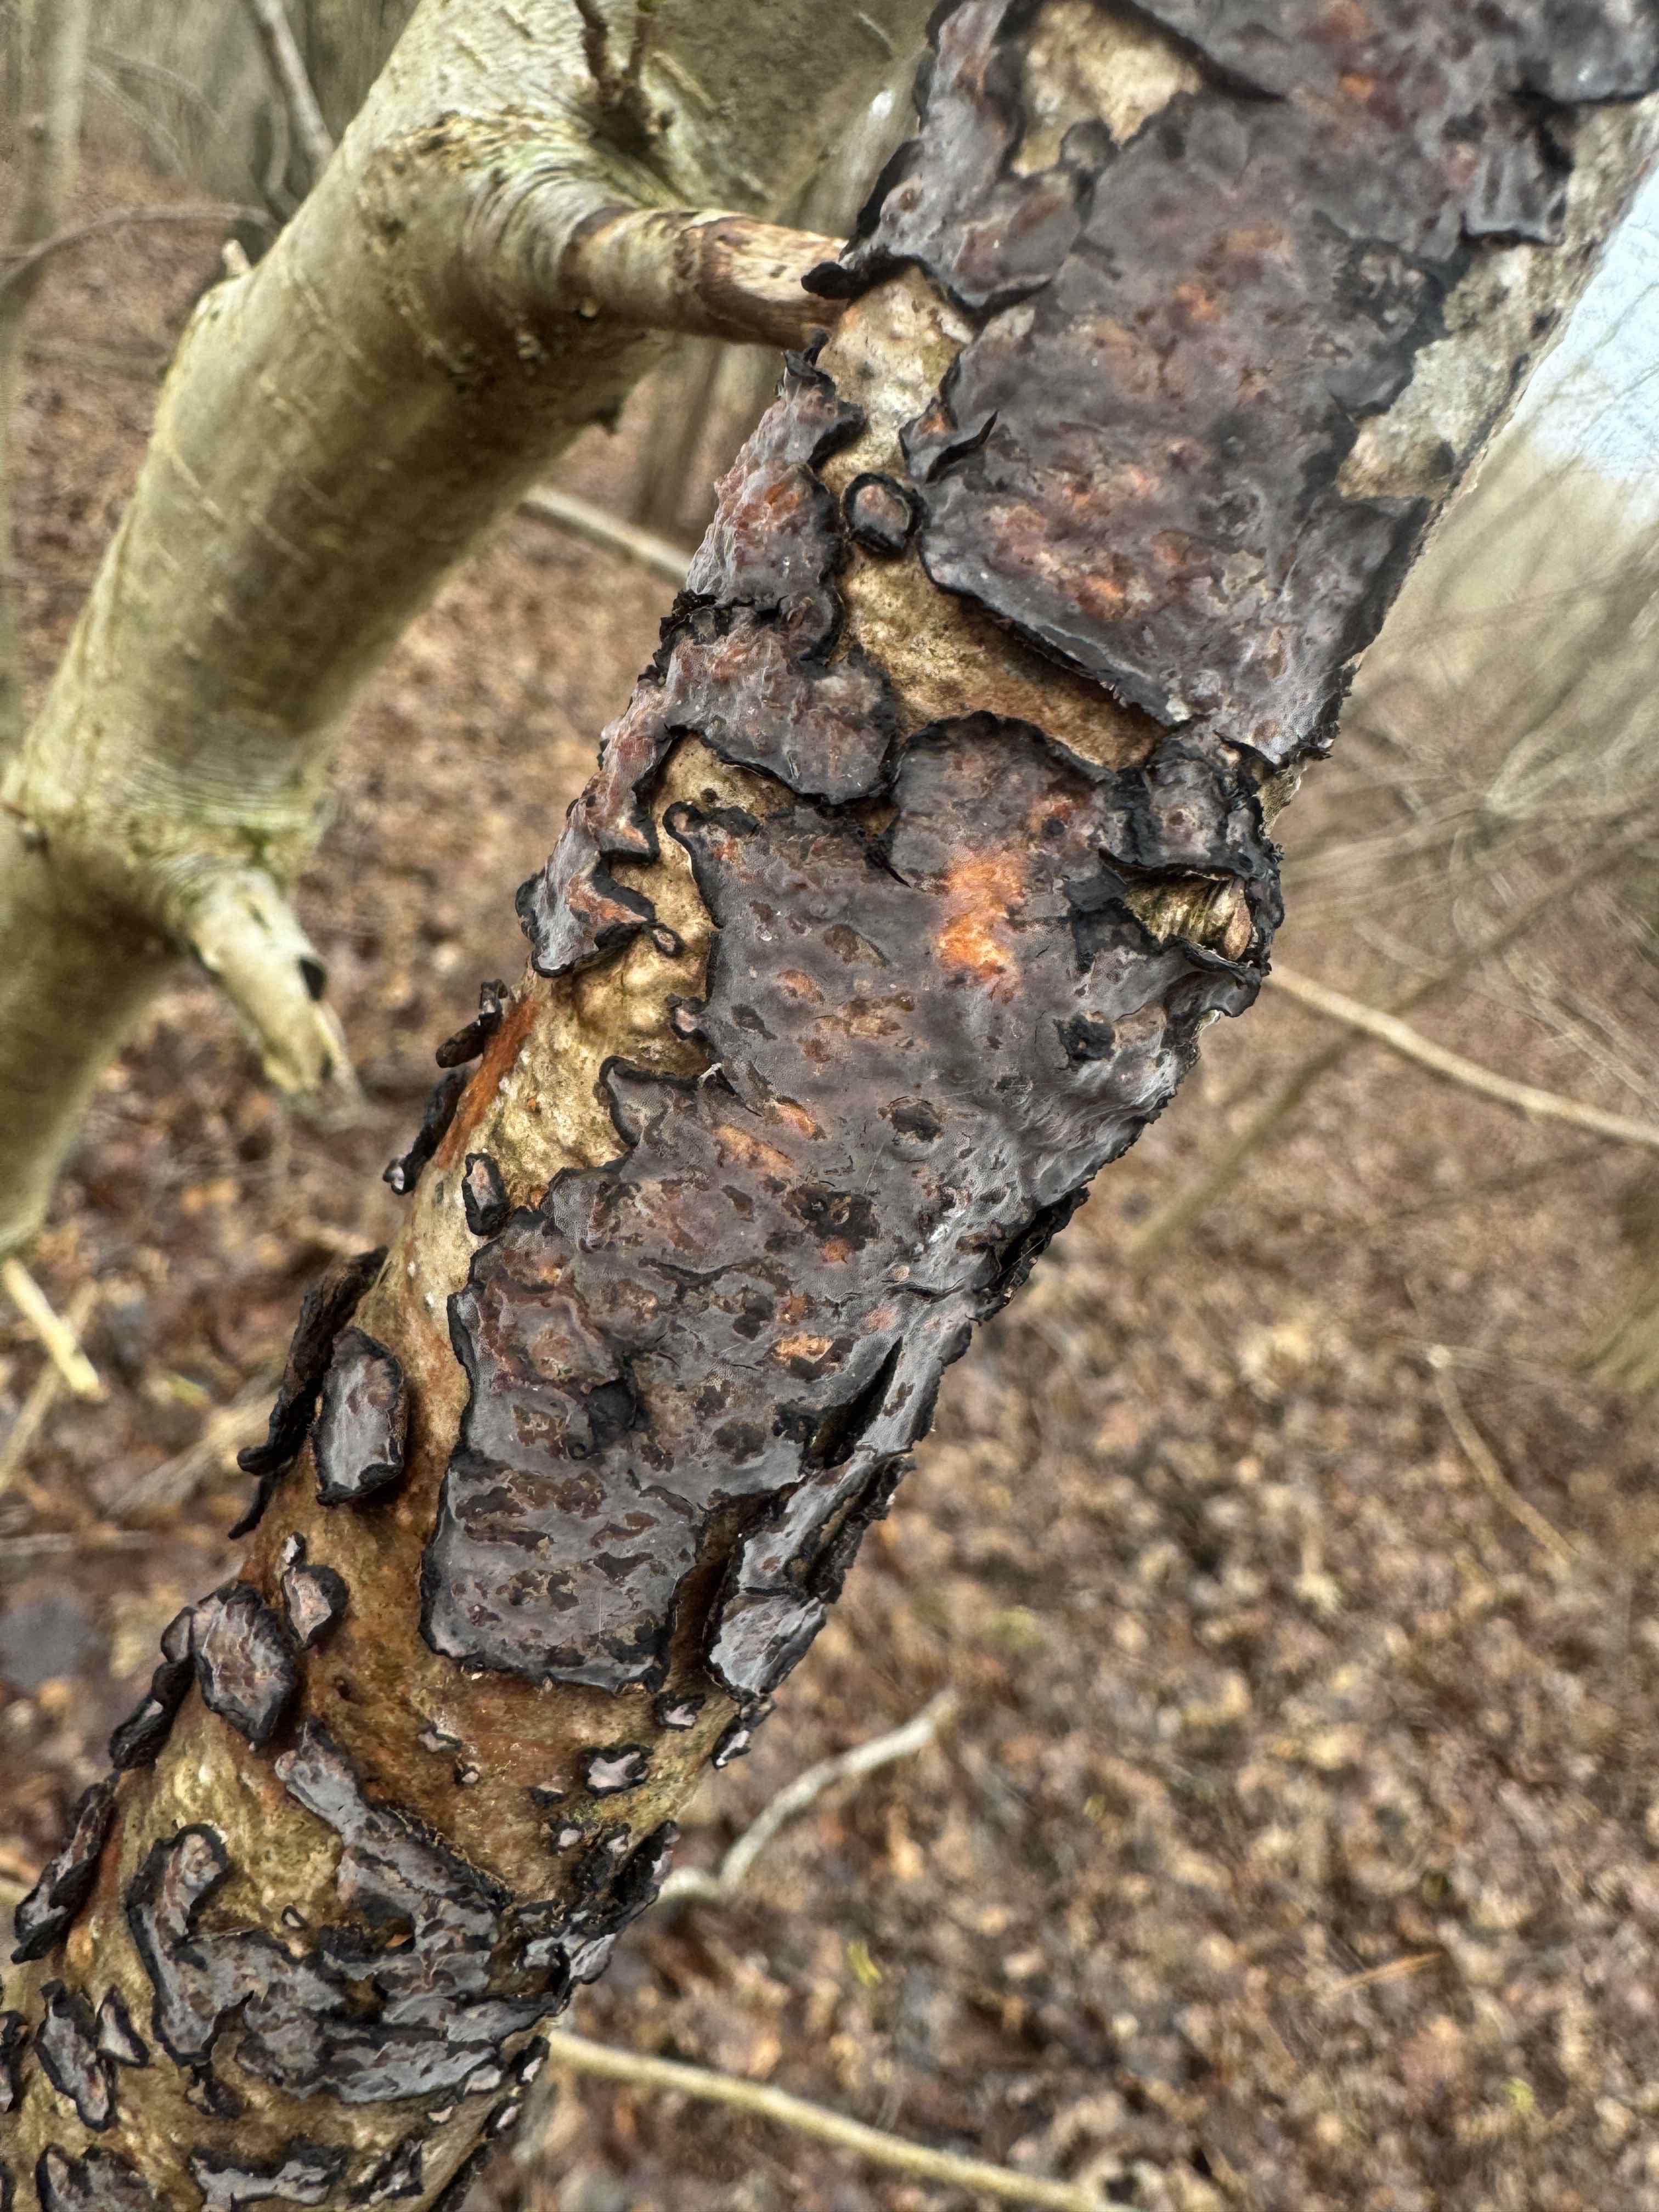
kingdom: Fungi
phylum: Basidiomycota
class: Agaricomycetes
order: Russulales
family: Peniophoraceae
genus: Peniophora
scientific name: Peniophora quercina
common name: ege-voksskind
